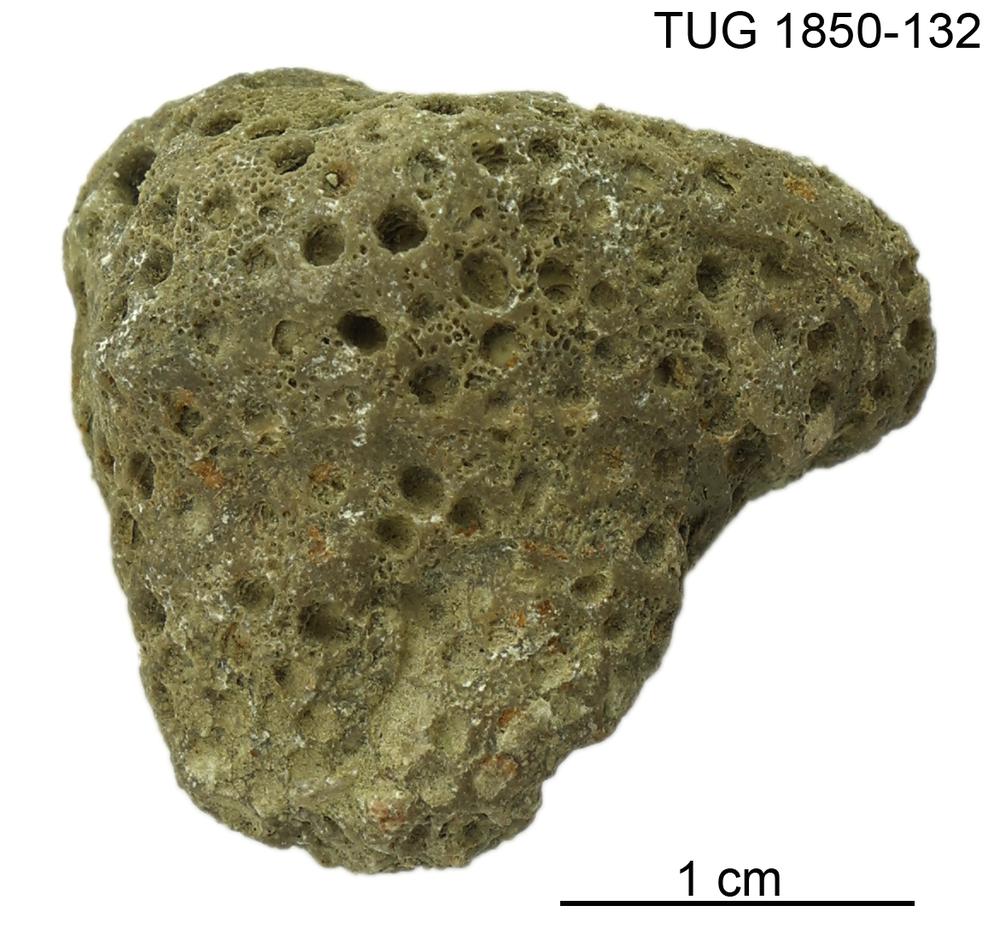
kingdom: Animalia
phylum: Cnidaria
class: Anthozoa
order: Heliolitina
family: Heliolitidae
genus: Heliolites
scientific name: Heliolites
